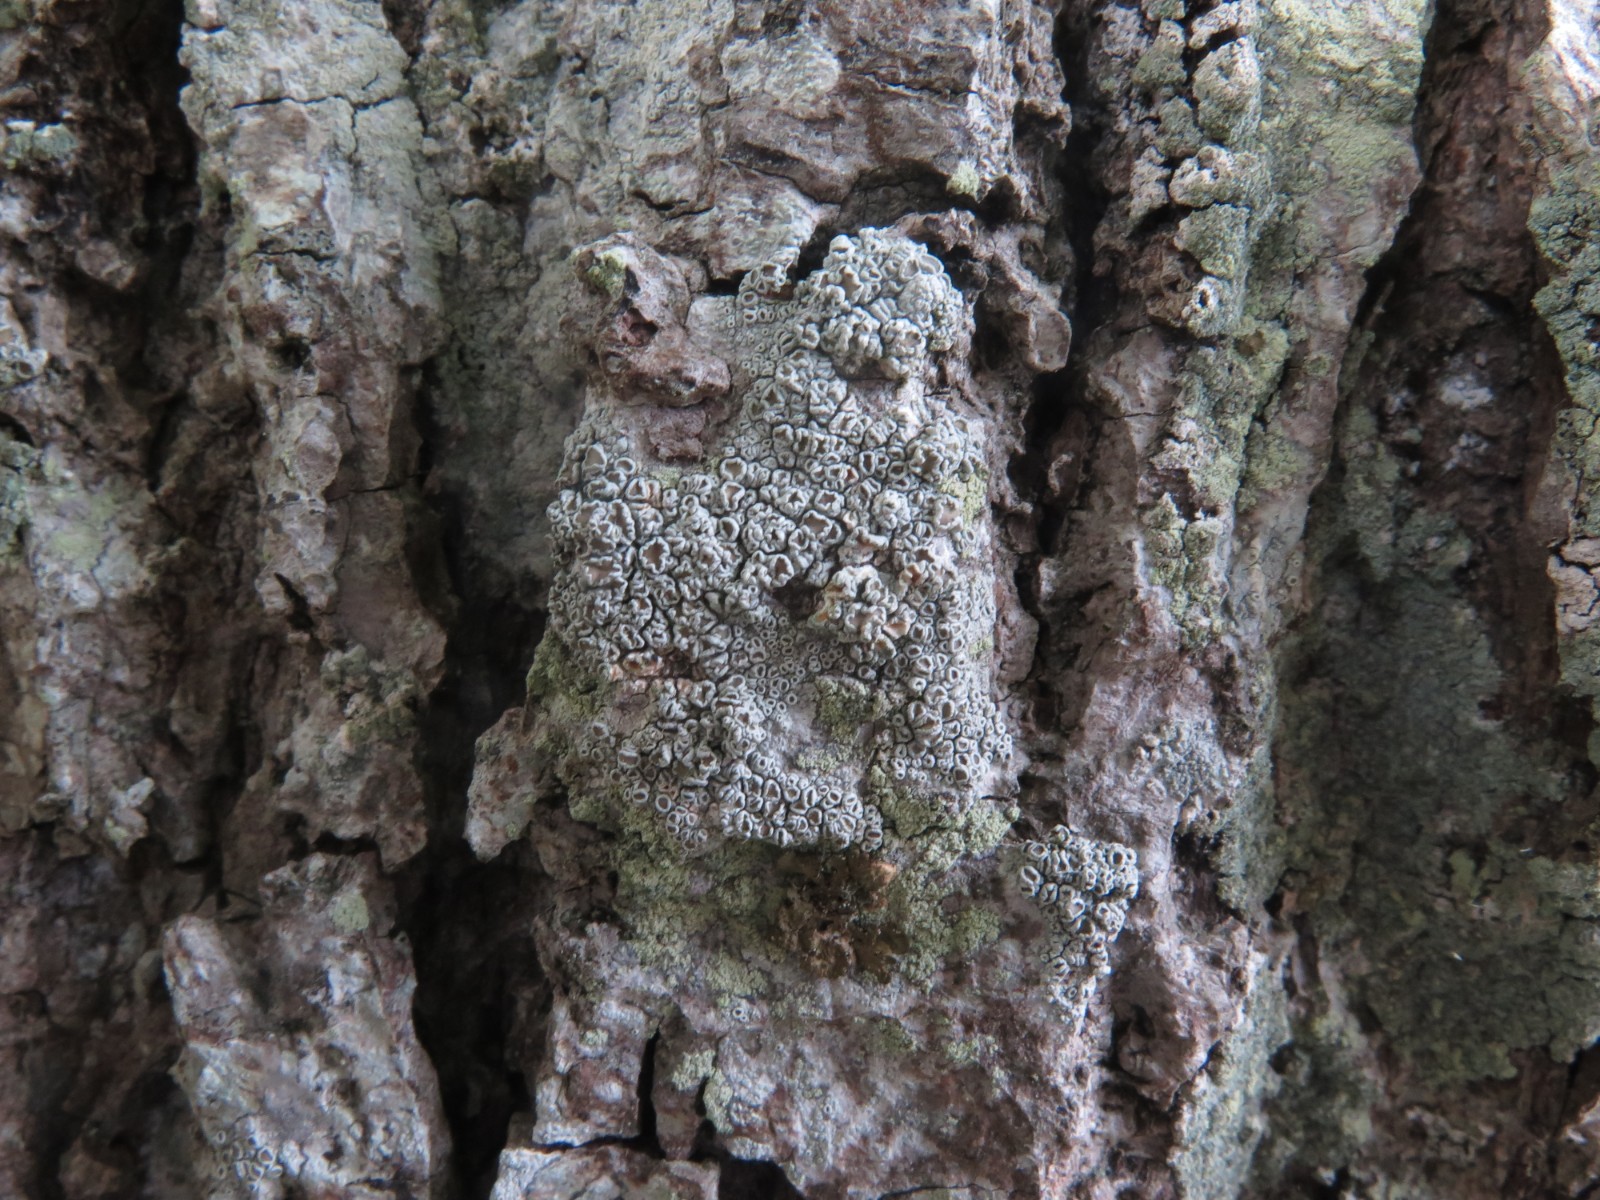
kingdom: Fungi
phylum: Ascomycota
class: Lecanoromycetes
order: Lecanorales
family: Lecanoraceae
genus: Lecanora
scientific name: Lecanora chlarotera
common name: brun kantskivelav
